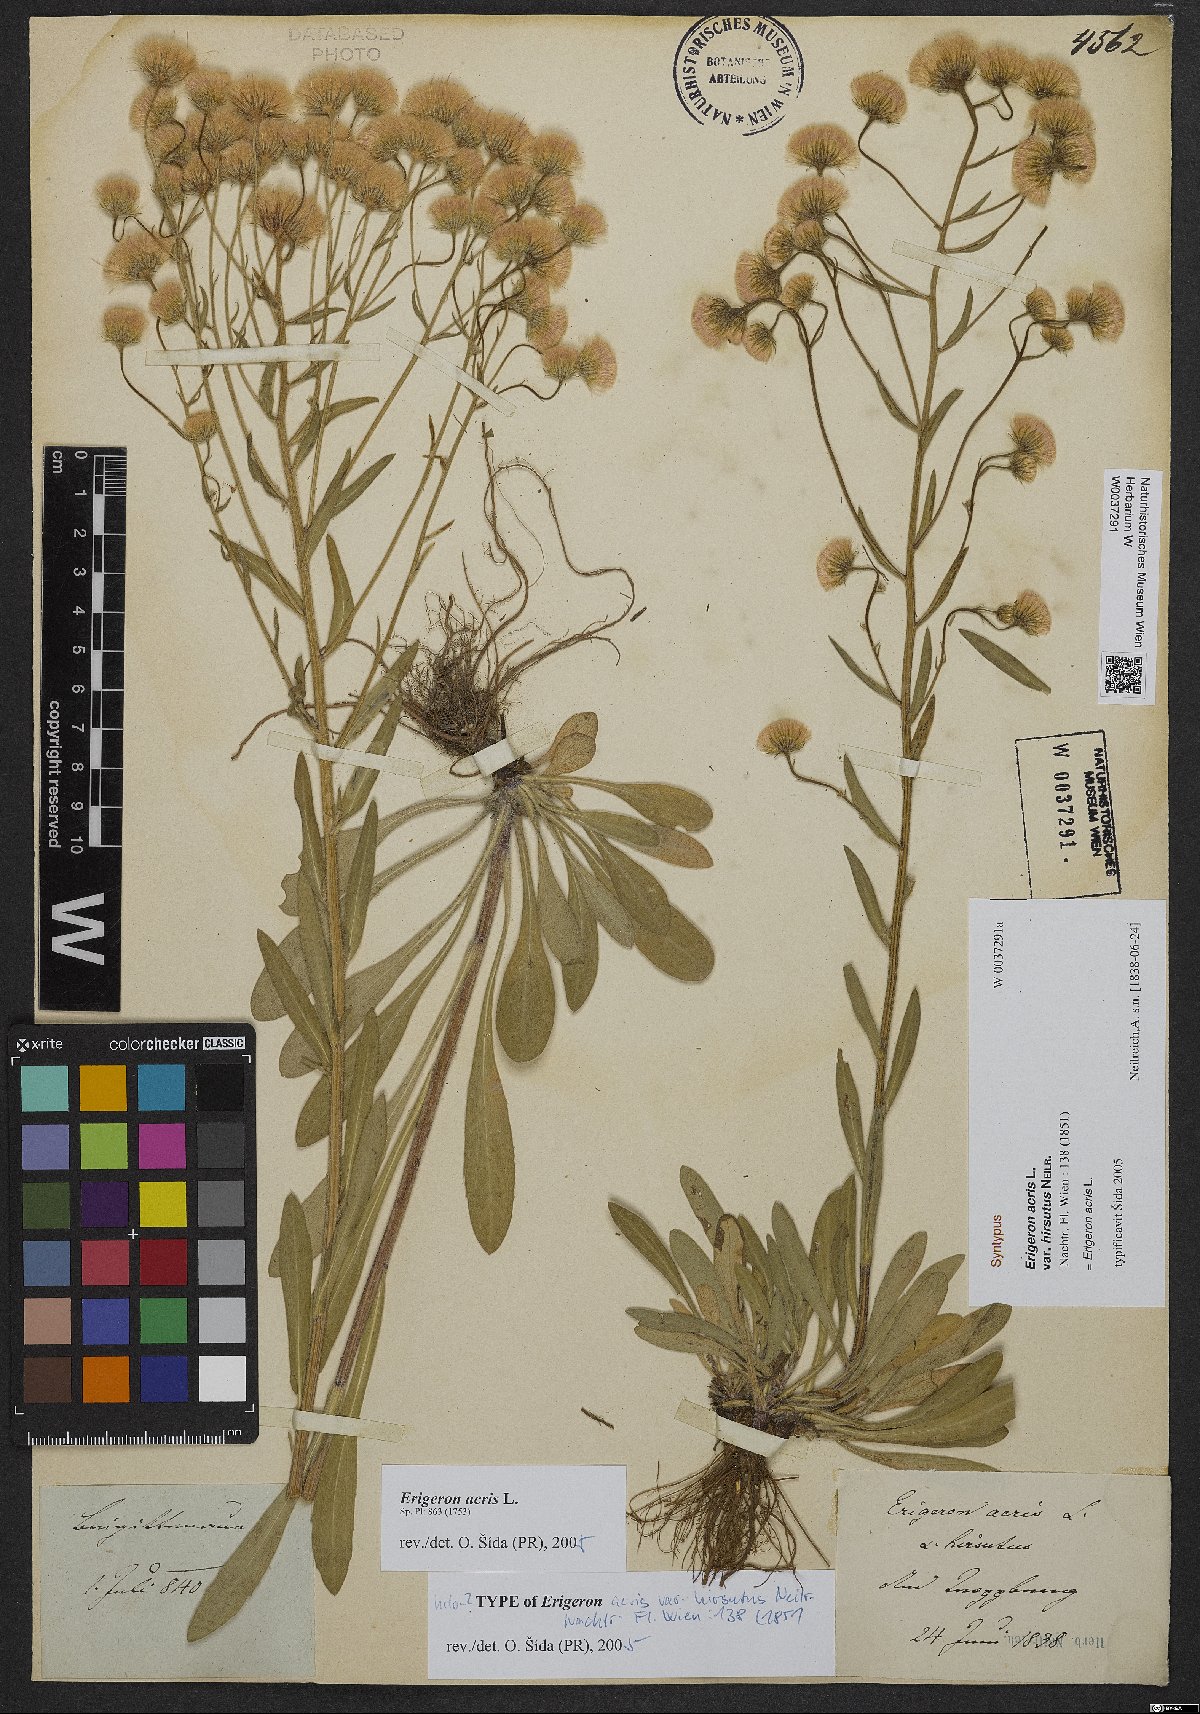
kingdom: Plantae
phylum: Tracheophyta
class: Magnoliopsida
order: Asterales
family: Asteraceae
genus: Erigeron
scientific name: Erigeron acris
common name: Blue fleabane
